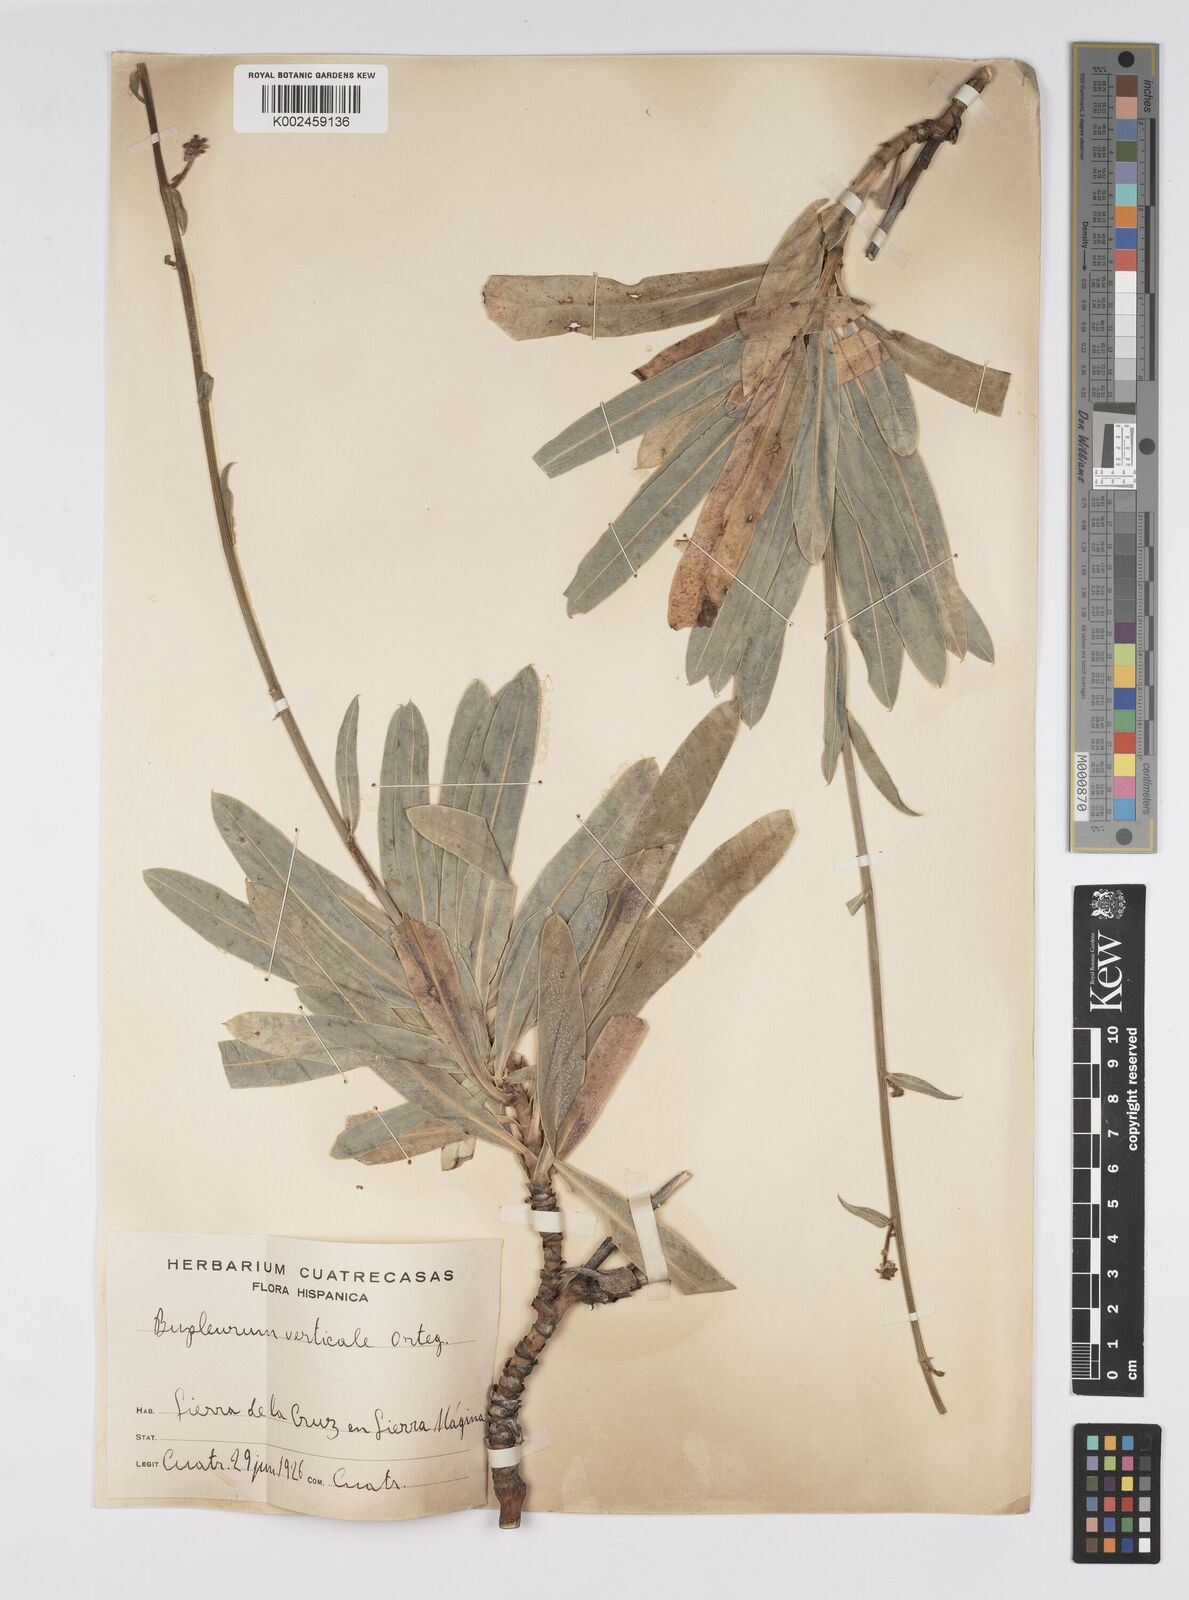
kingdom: Plantae
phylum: Tracheophyta
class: Magnoliopsida
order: Apiales
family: Apiaceae
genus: Bupleurum
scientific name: Bupleurum gibraltaricum
